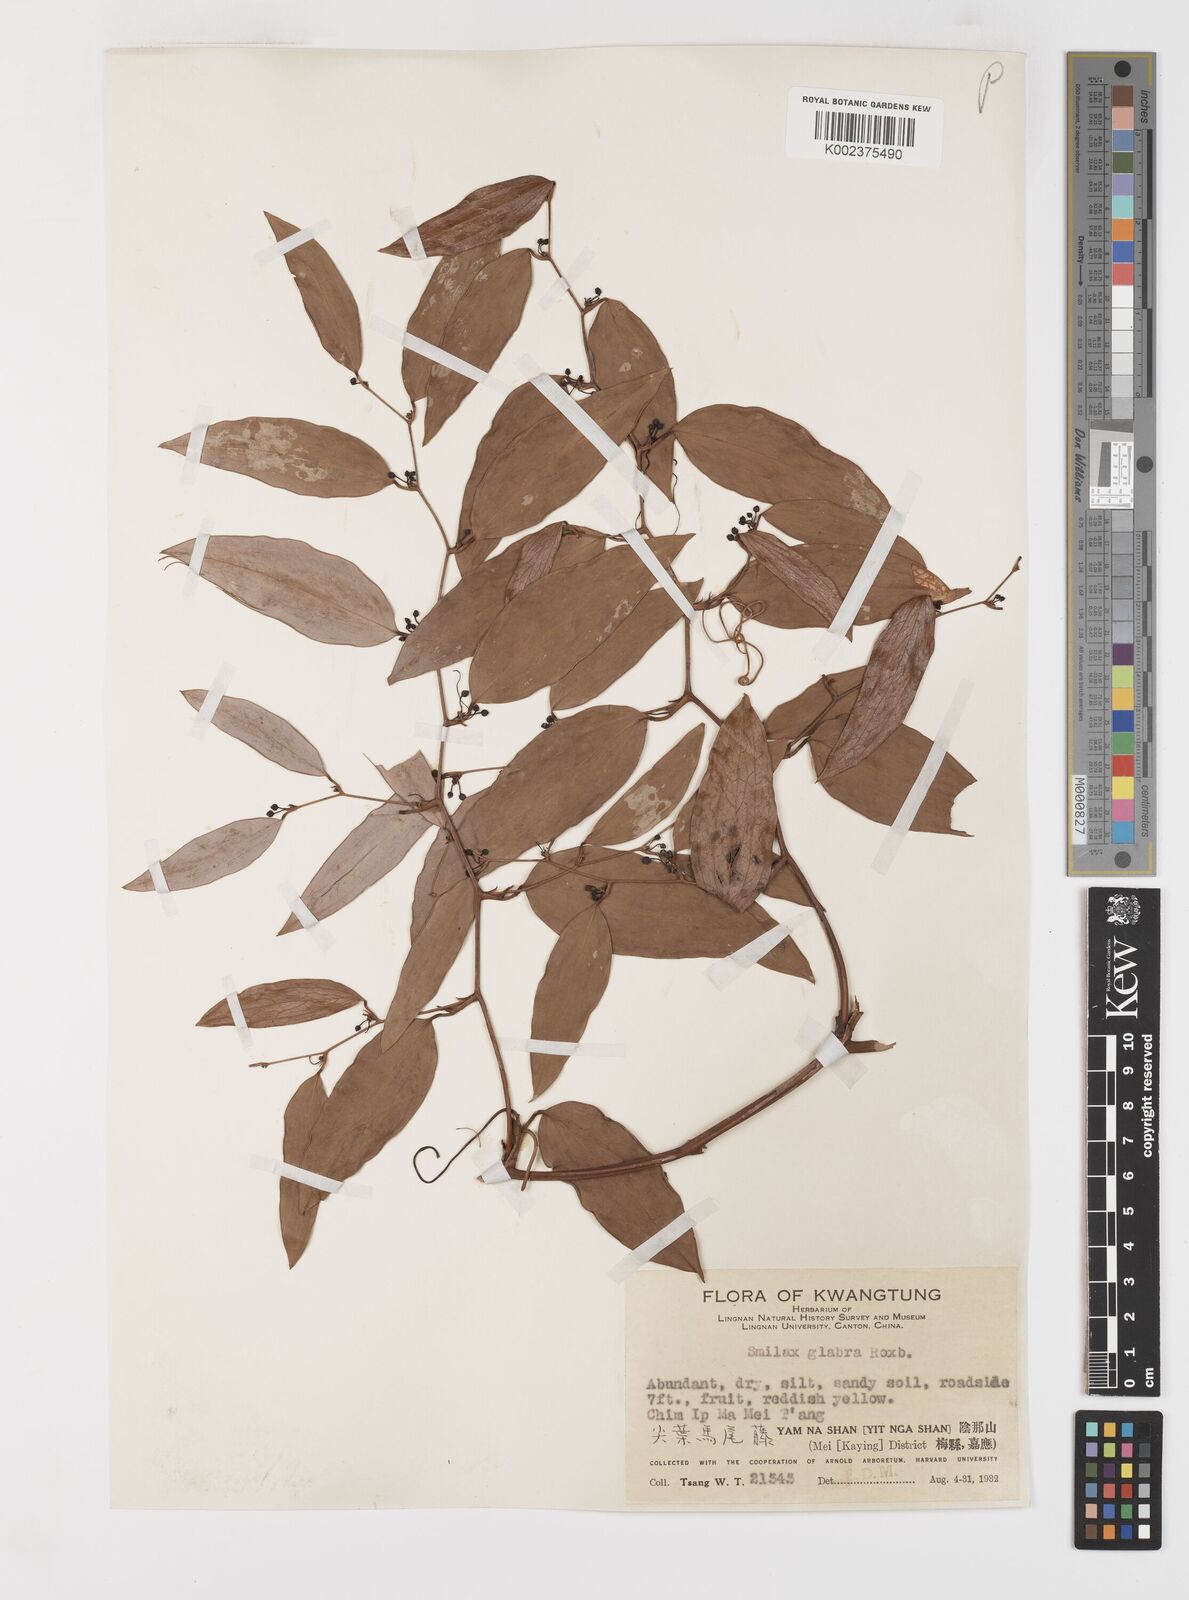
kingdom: Plantae
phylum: Tracheophyta
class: Liliopsida
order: Liliales
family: Smilacaceae
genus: Smilax
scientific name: Smilax glabra
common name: Chinese smilax
